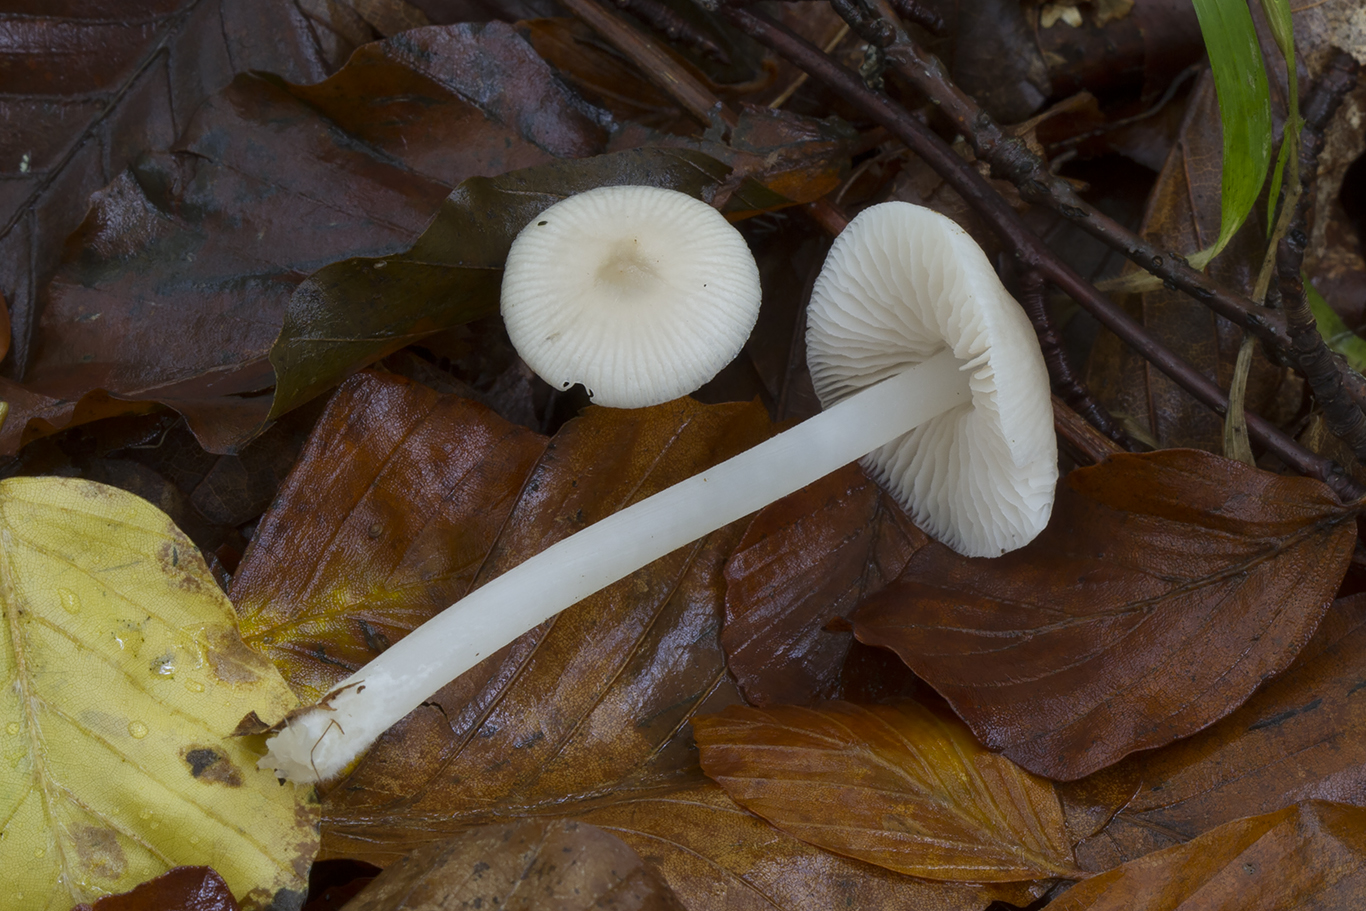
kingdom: Fungi
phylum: Basidiomycota
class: Agaricomycetes
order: Agaricales
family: Mycenaceae
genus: Mycena
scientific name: Mycena pura
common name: Lilac bonnet
